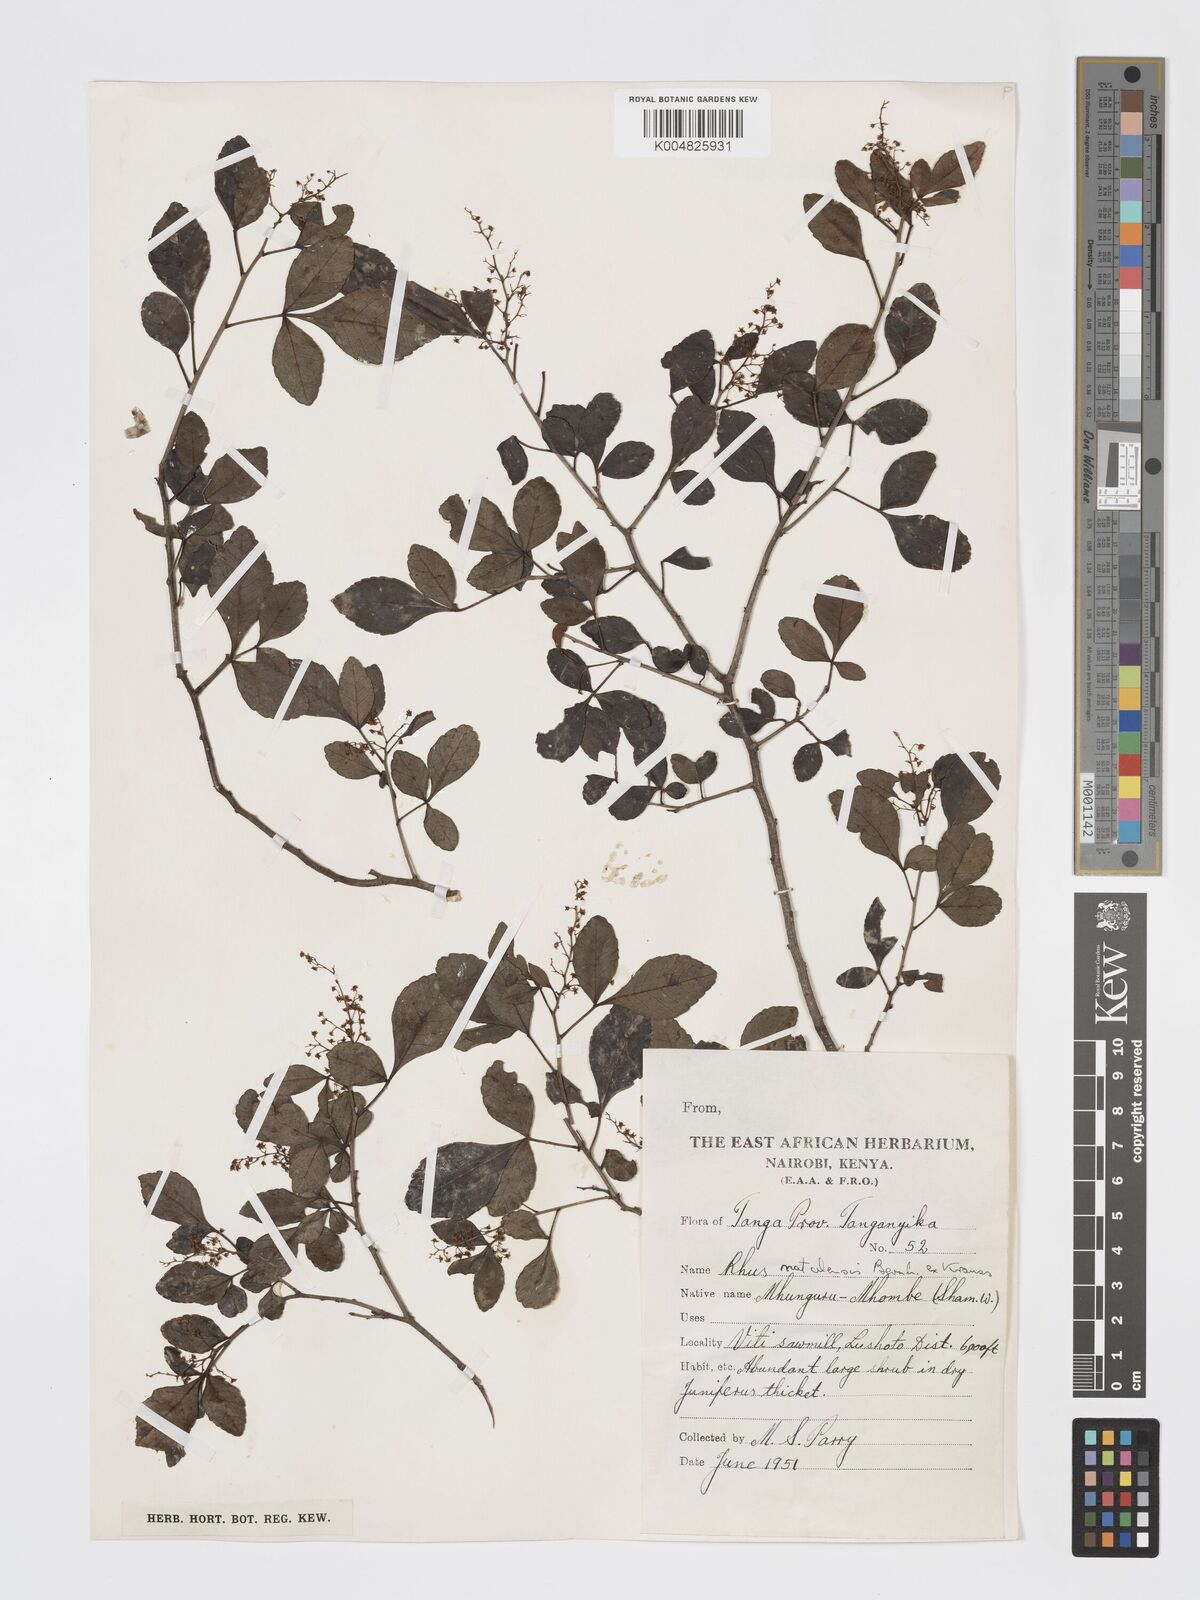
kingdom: Plantae
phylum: Tracheophyta
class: Magnoliopsida
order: Sapindales
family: Anacardiaceae
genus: Searsia
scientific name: Searsia natalensis
